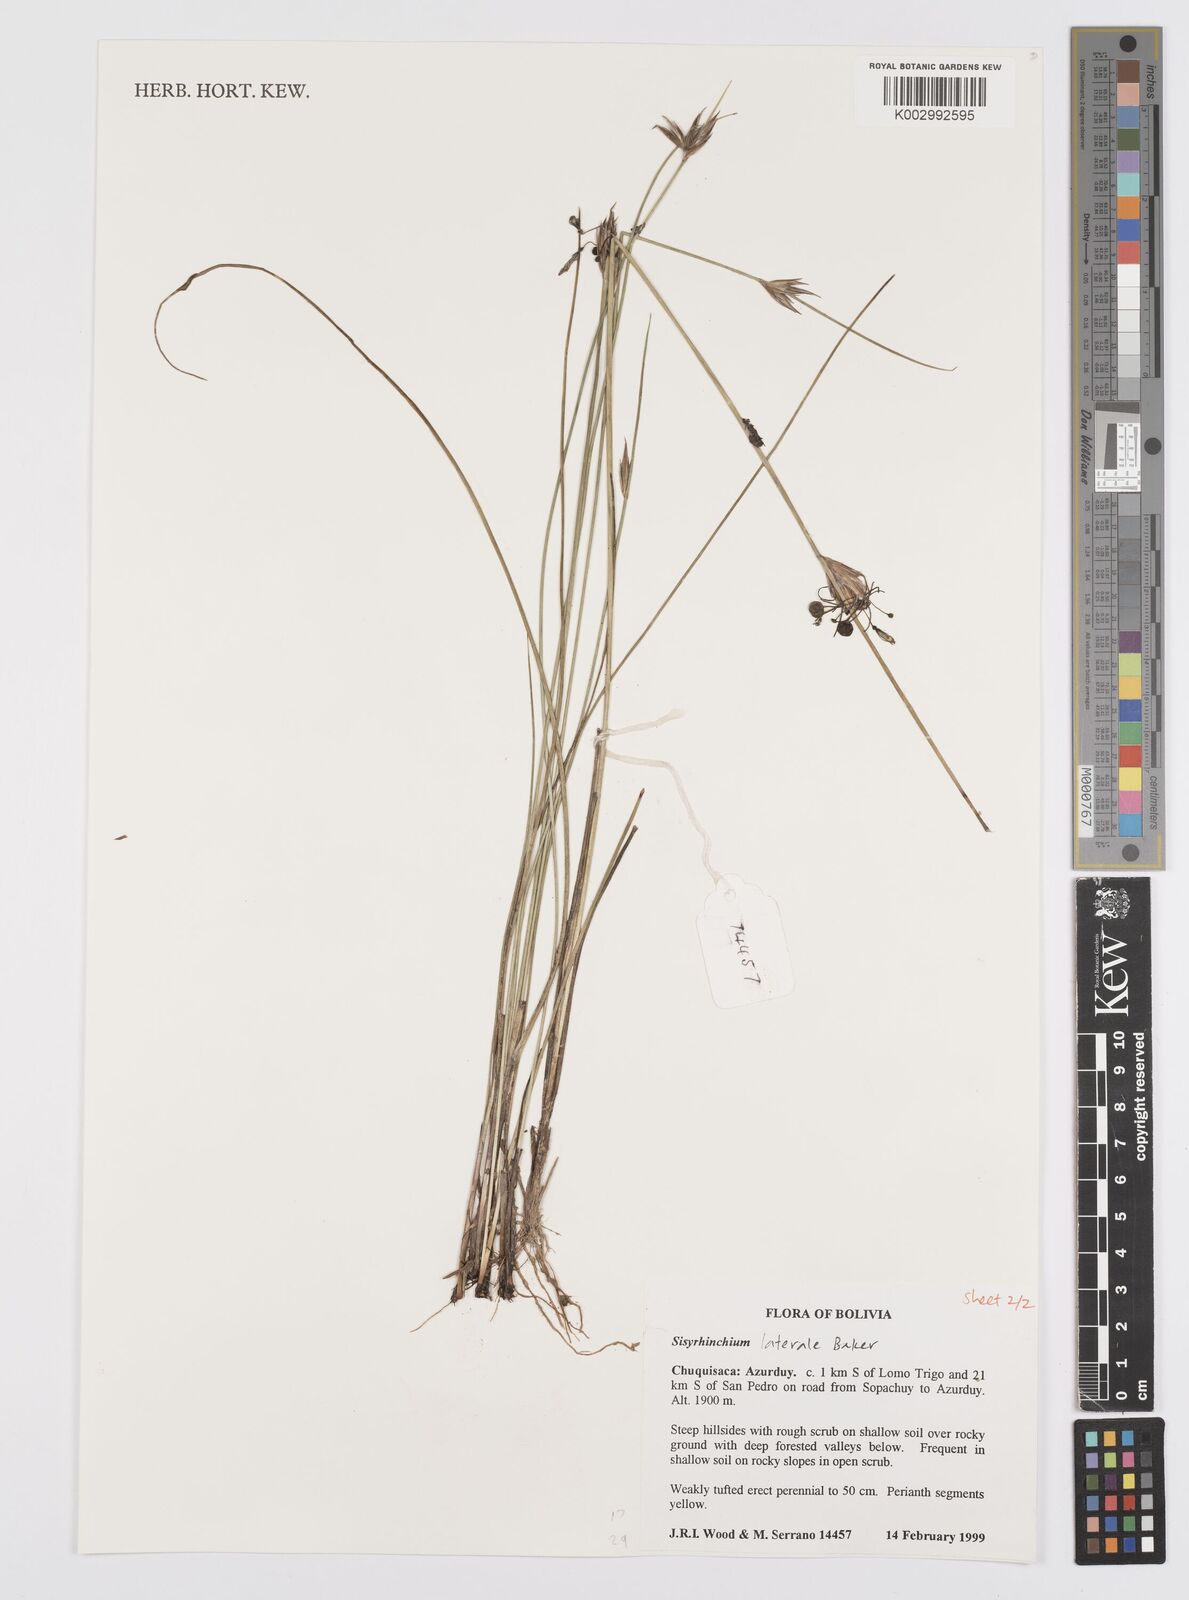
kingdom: Plantae
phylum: Tracheophyta
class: Liliopsida
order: Asparagales
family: Iridaceae
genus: Sisyrinchium
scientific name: Sisyrinchium laterale
